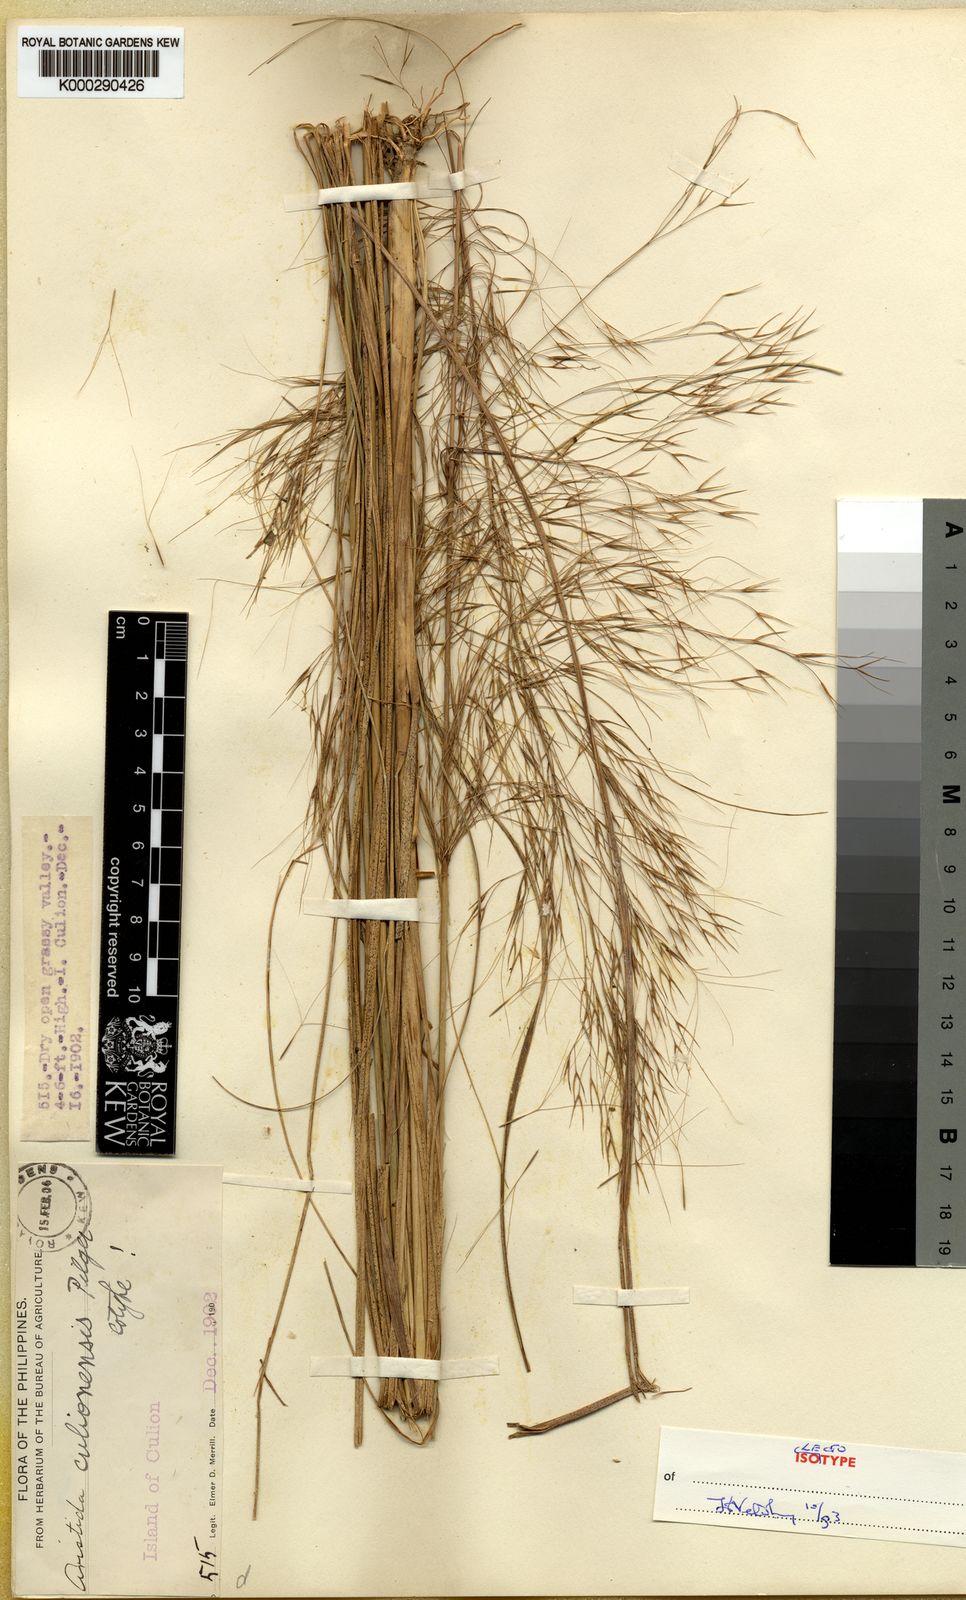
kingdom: Plantae
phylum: Tracheophyta
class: Liliopsida
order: Poales
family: Poaceae
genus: Aristida
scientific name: Aristida culionensis
